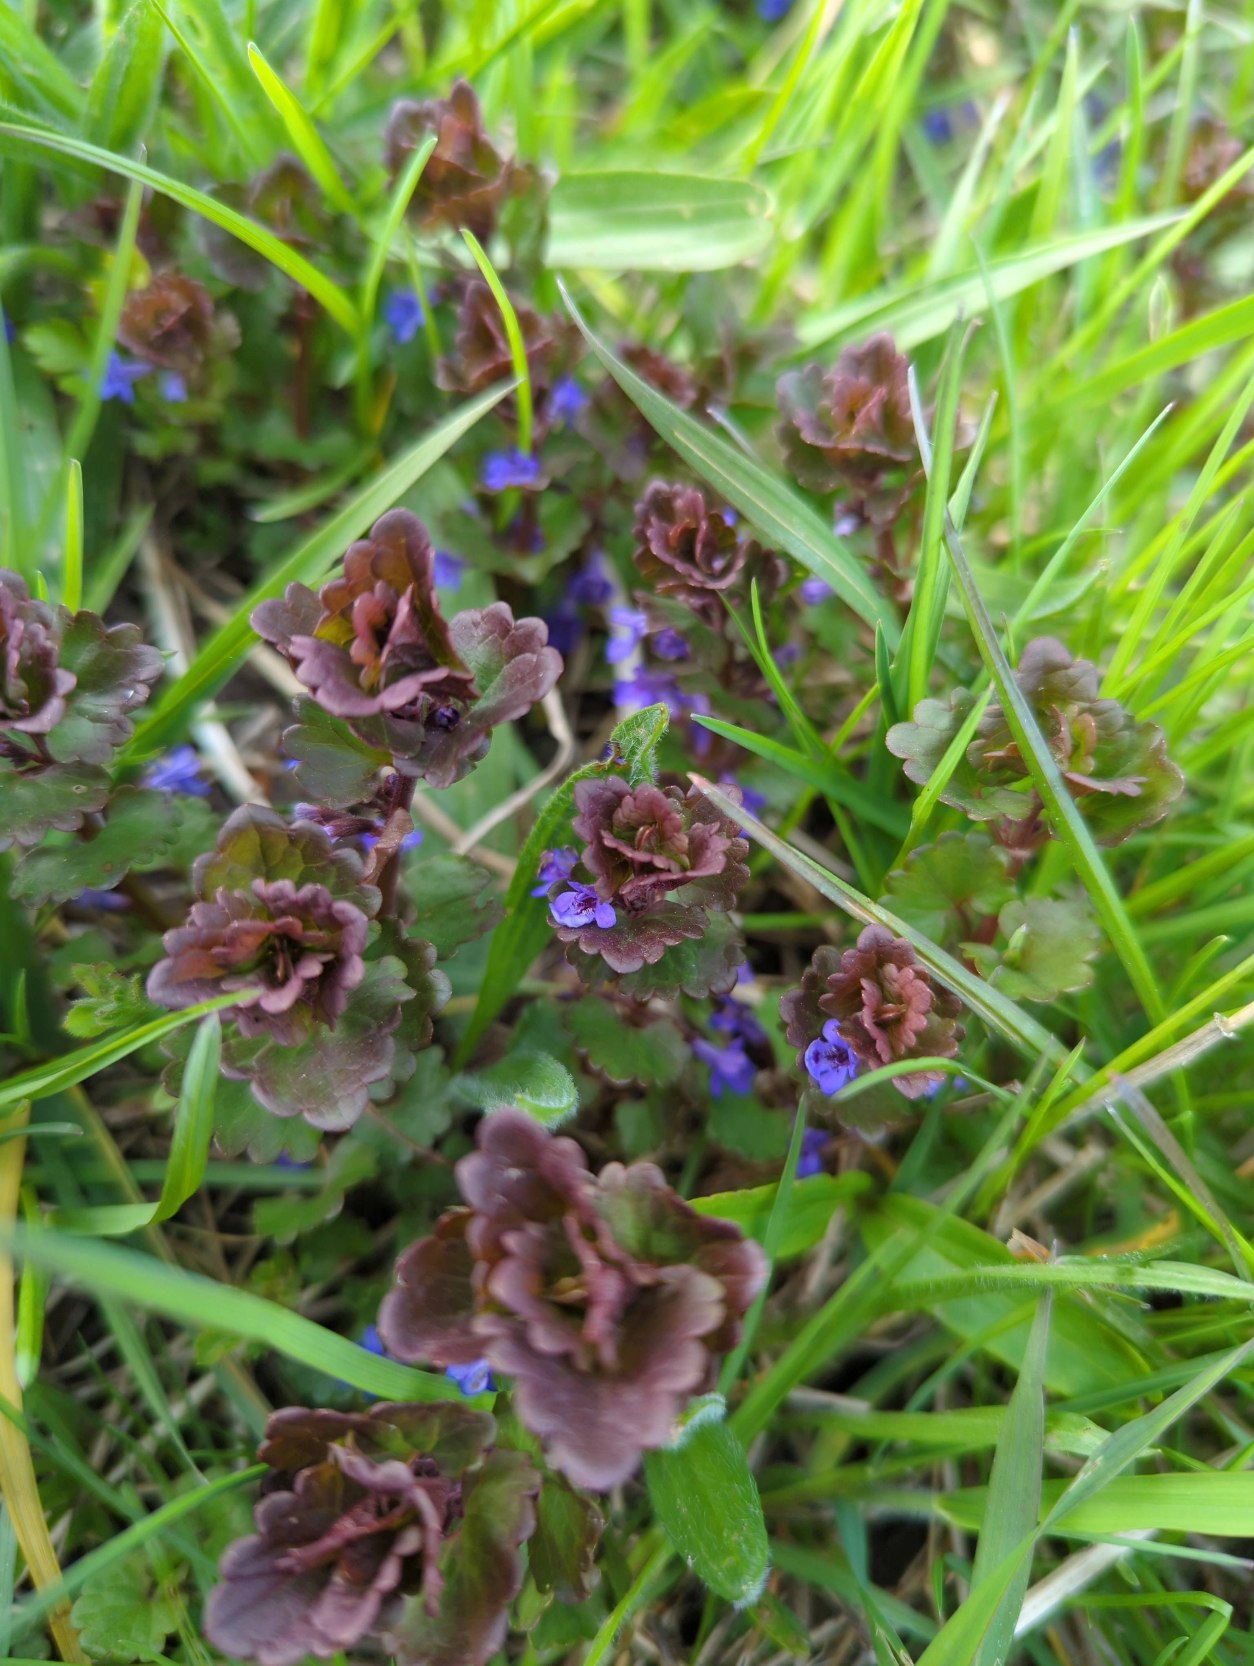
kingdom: Plantae
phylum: Tracheophyta
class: Magnoliopsida
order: Lamiales
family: Lamiaceae
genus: Glechoma
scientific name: Glechoma hederacea
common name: Korsknap
